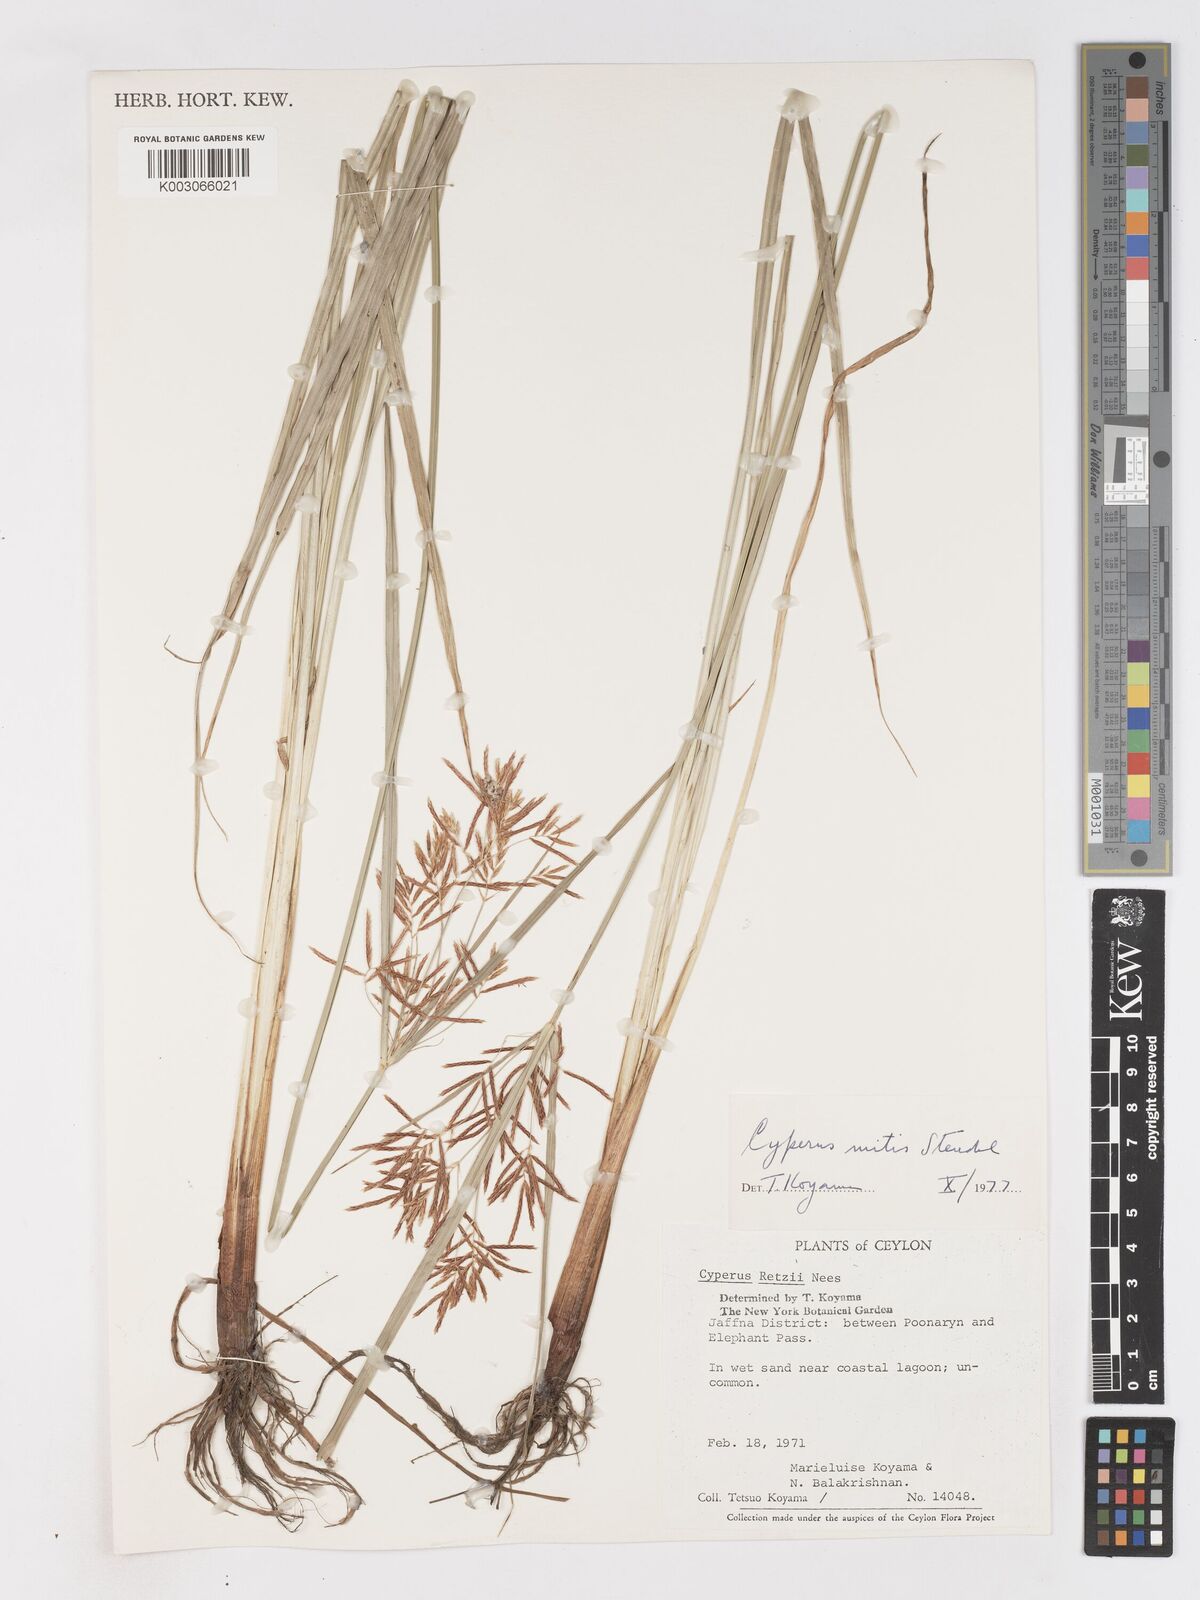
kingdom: Plantae
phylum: Tracheophyta
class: Liliopsida
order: Poales
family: Cyperaceae
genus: Cyperus
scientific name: Cyperus mitis
